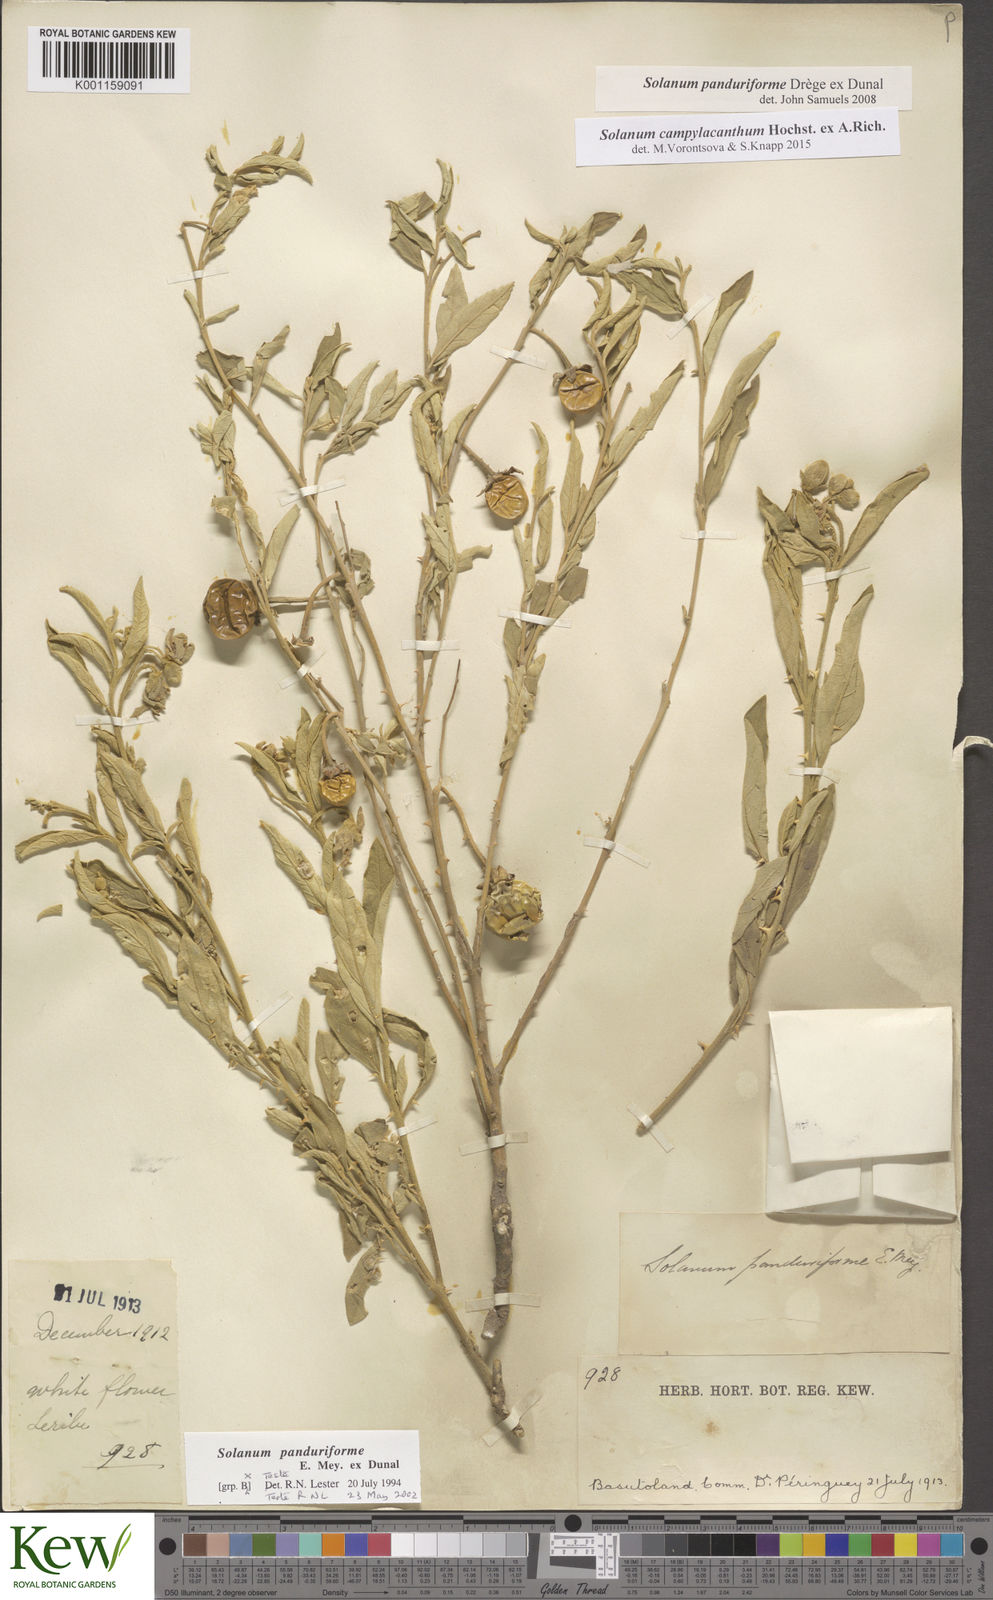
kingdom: Plantae
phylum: Tracheophyta
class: Magnoliopsida
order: Solanales
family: Solanaceae
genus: Solanum
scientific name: Solanum campylacanthum
